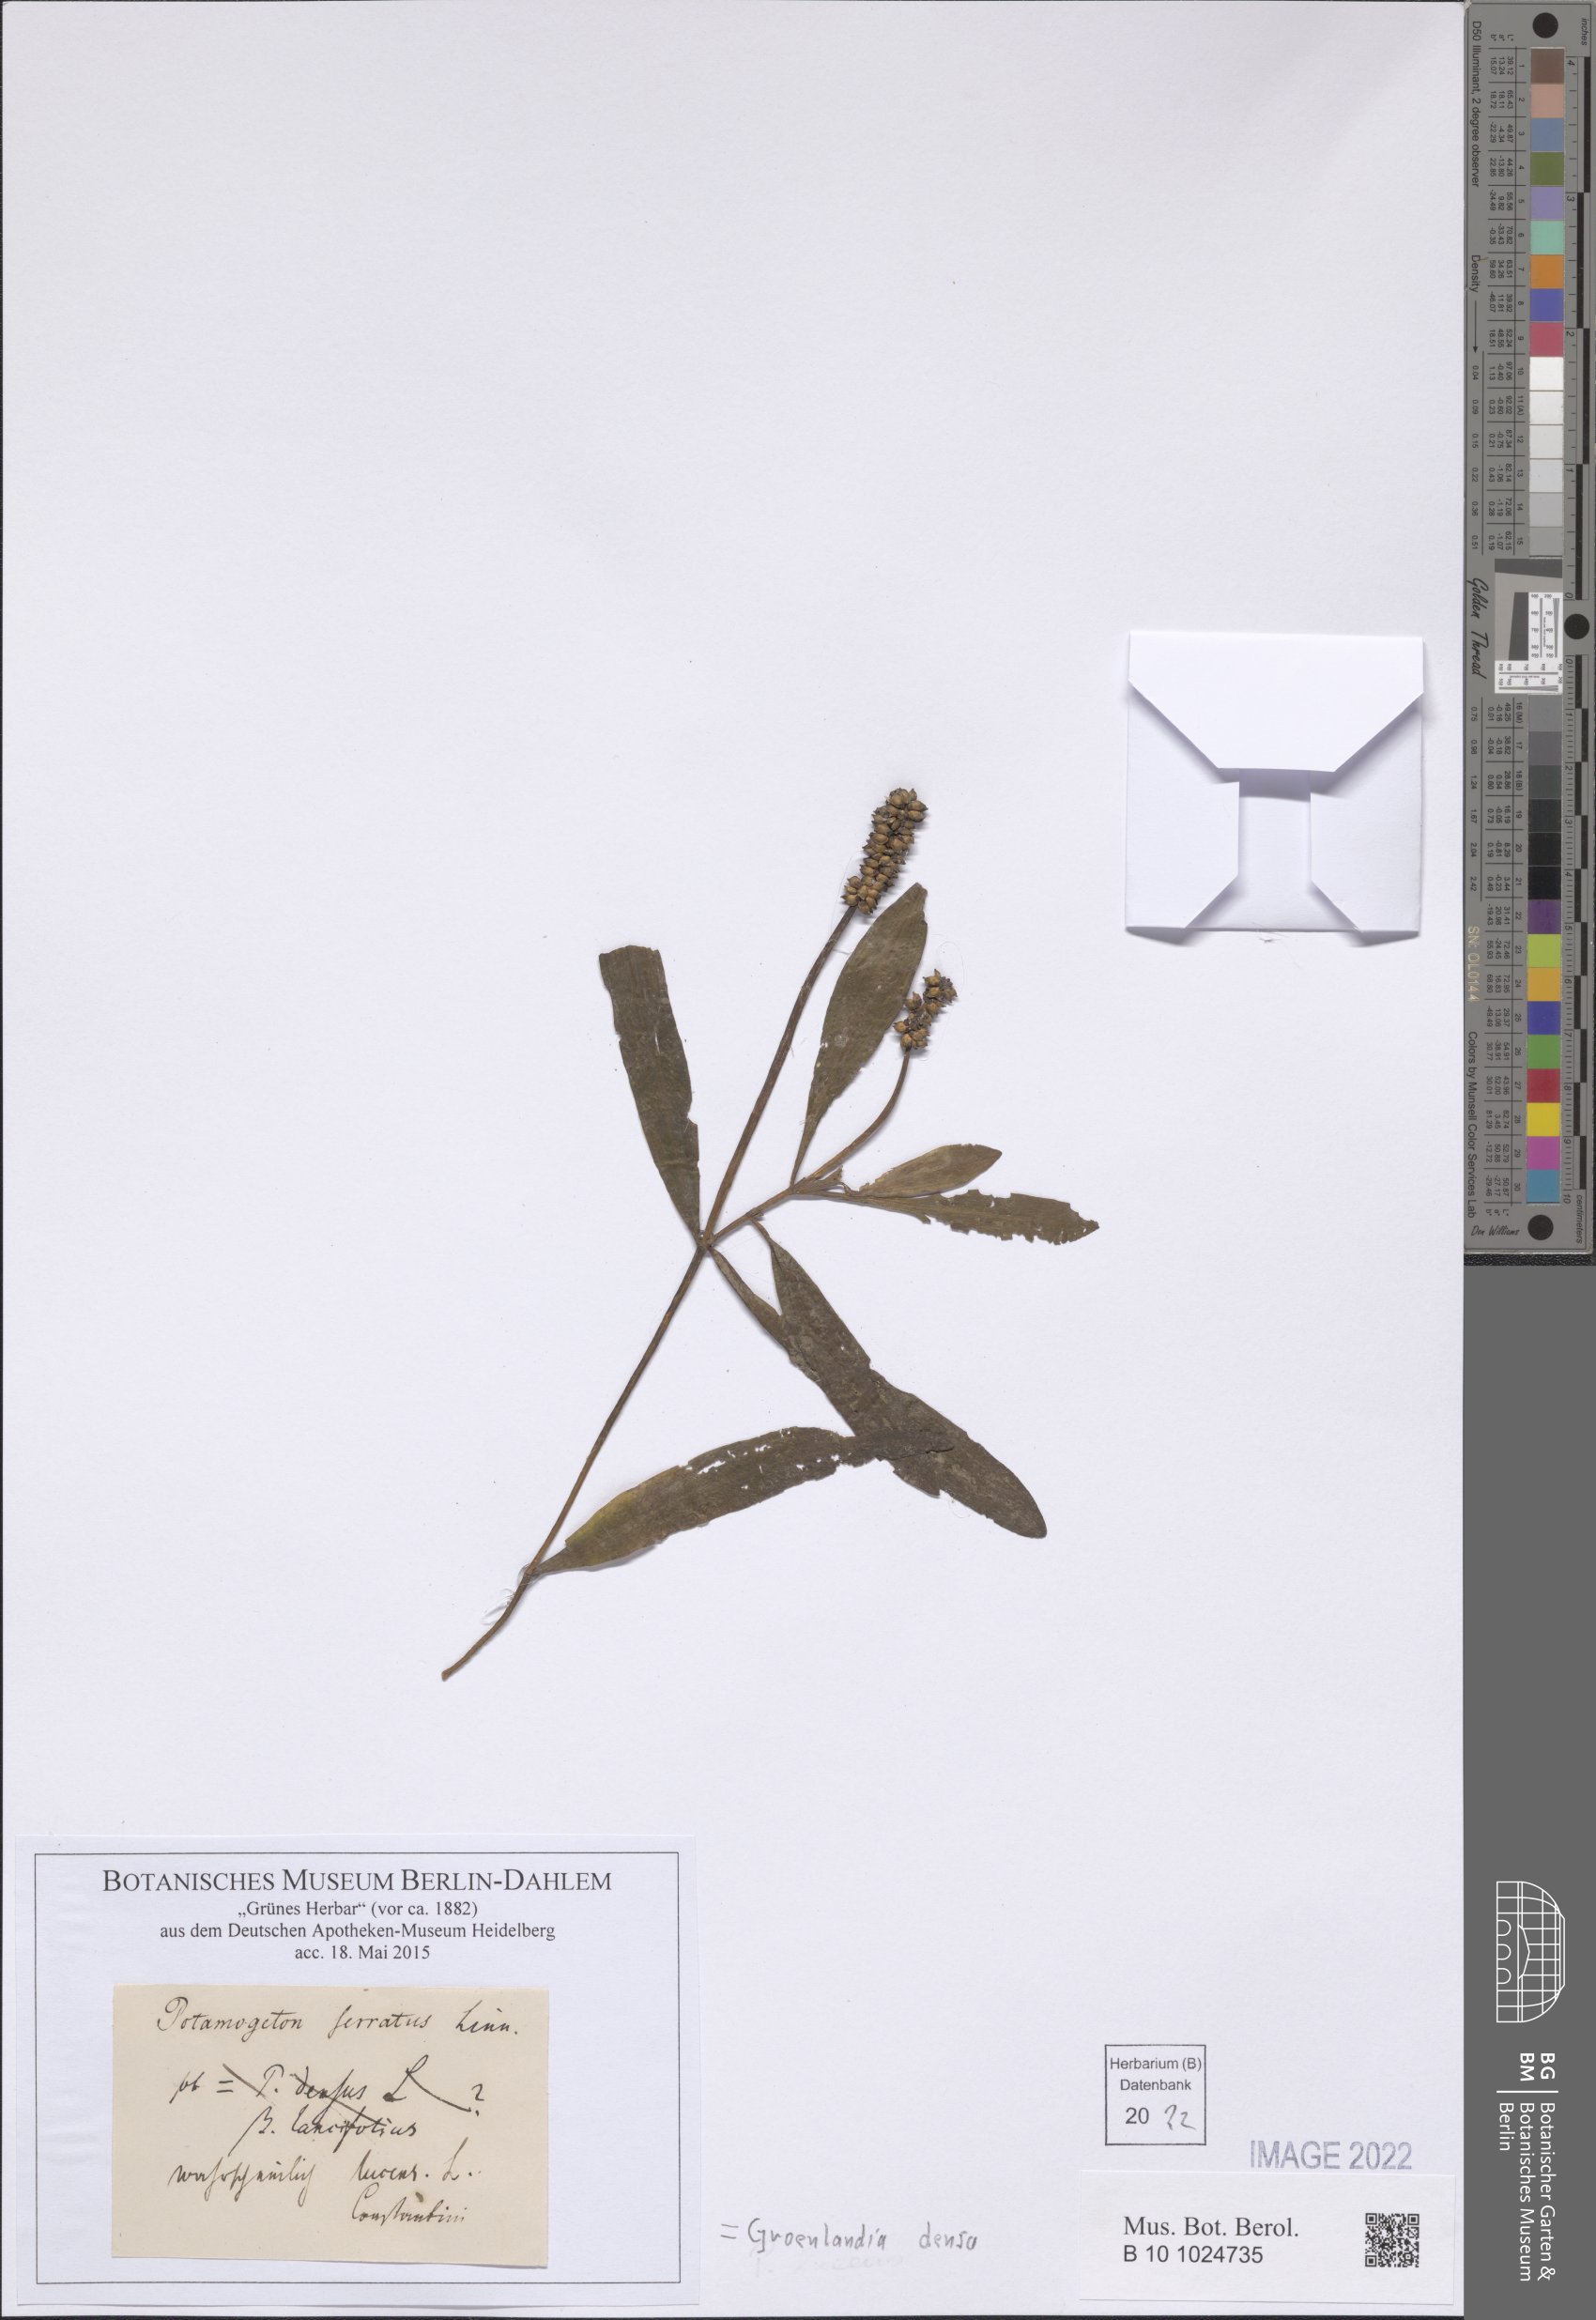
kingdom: Plantae
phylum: Tracheophyta
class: Liliopsida
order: Alismatales
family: Potamogetonaceae
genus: Groenlandia
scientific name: Groenlandia densa
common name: Opposite-leaved pondweed
